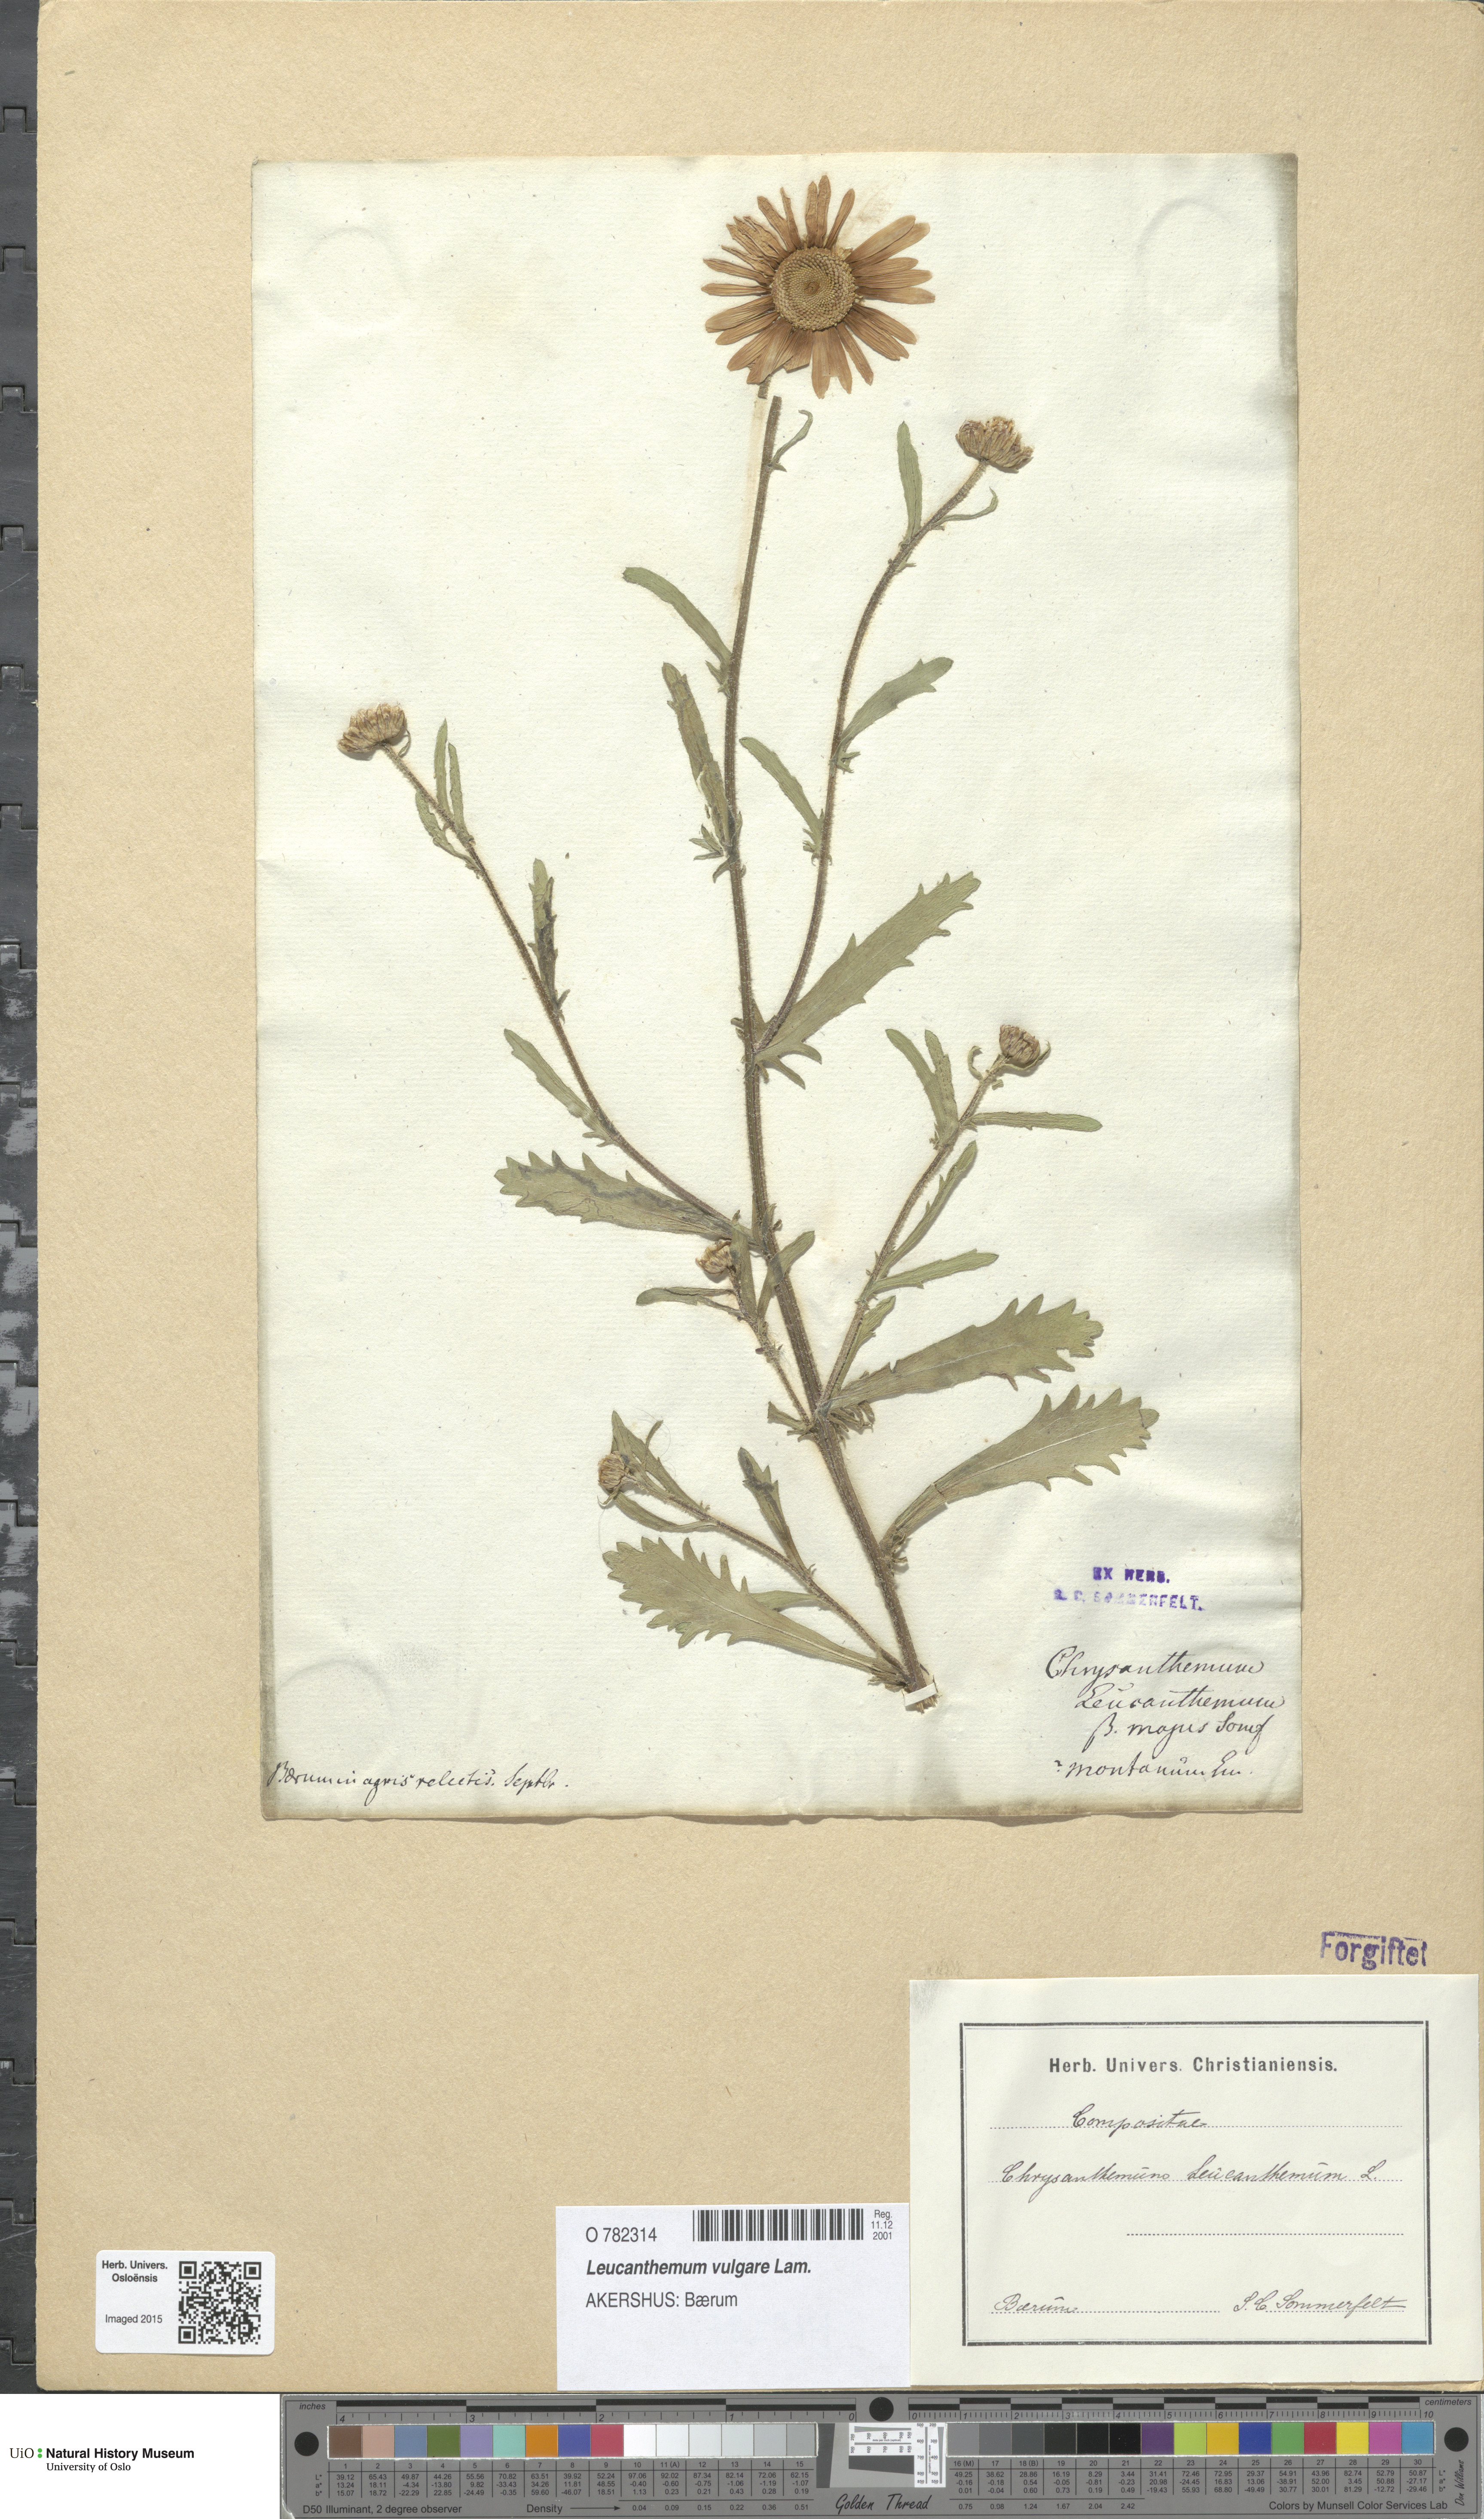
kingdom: Plantae
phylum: Tracheophyta
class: Magnoliopsida
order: Asterales
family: Asteraceae
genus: Leucanthemum
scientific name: Leucanthemum vulgare
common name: Oxeye daisy
